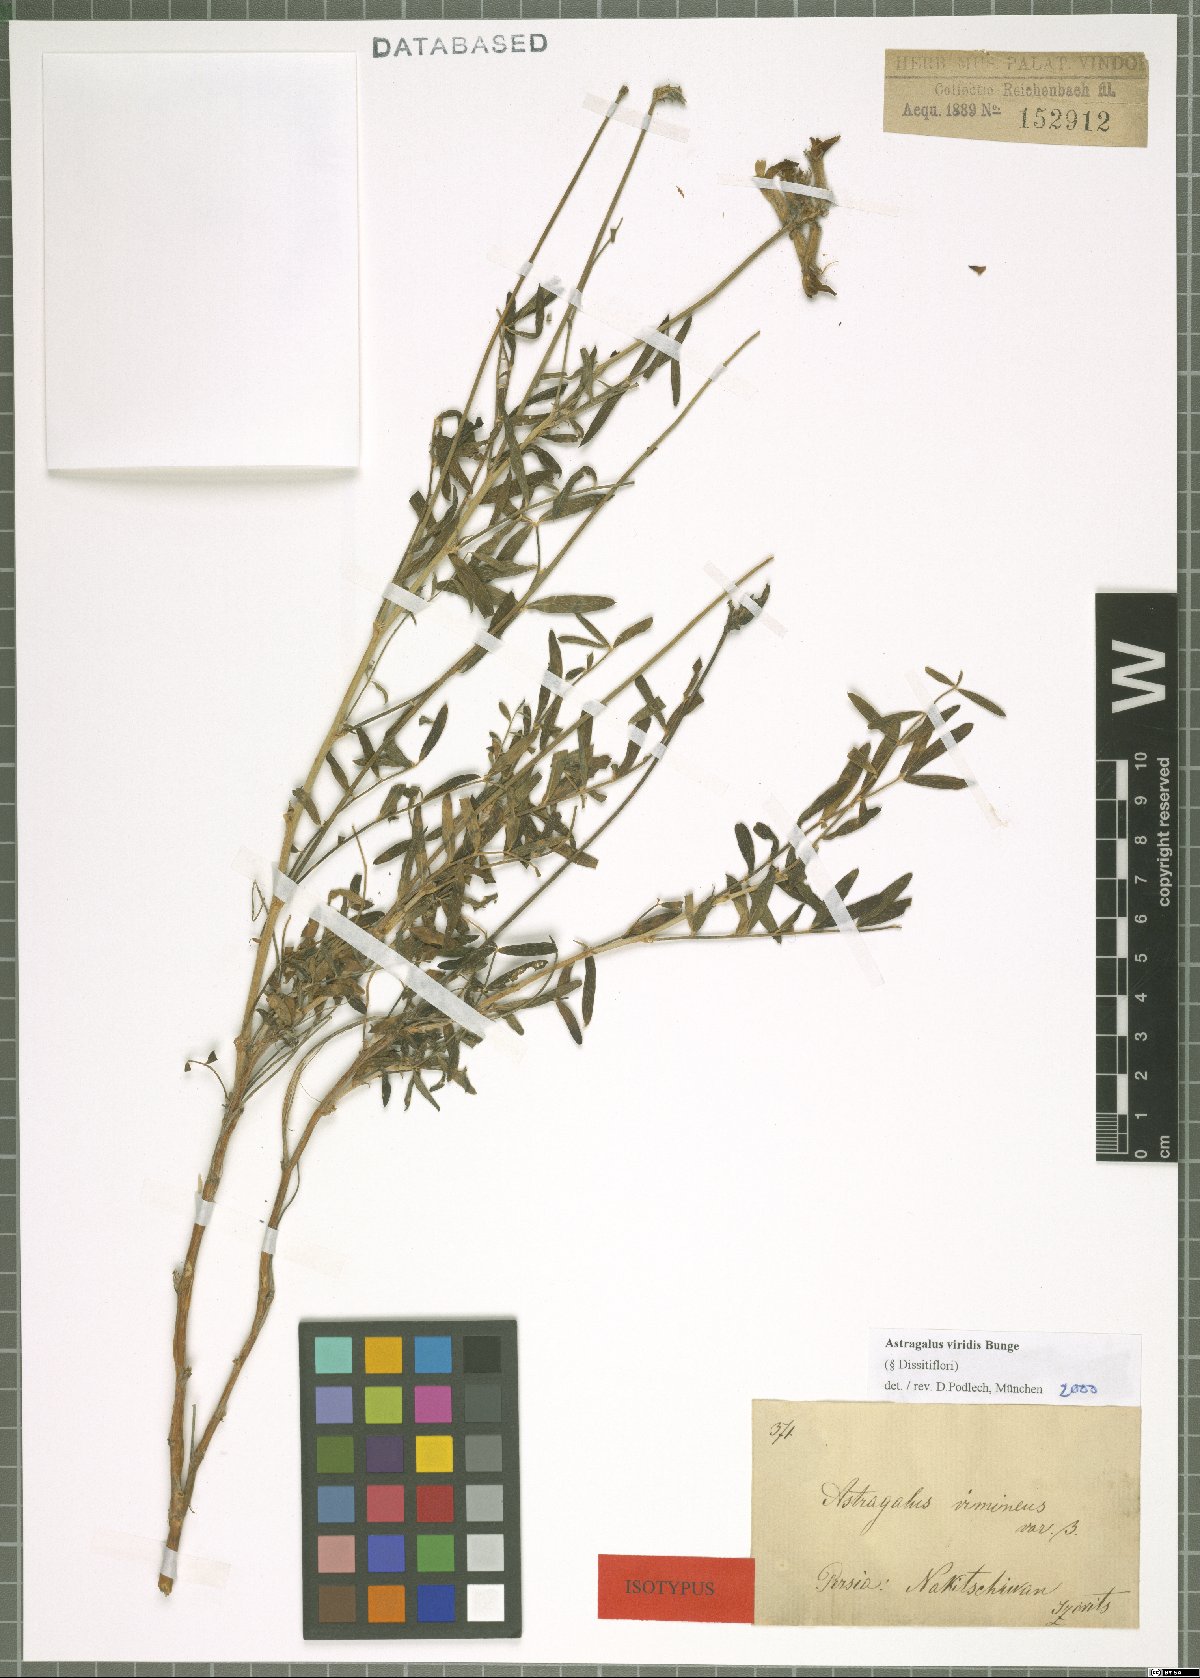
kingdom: Plantae
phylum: Tracheophyta
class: Magnoliopsida
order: Fabales
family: Fabaceae
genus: Astragalus
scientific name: Astragalus viridis
